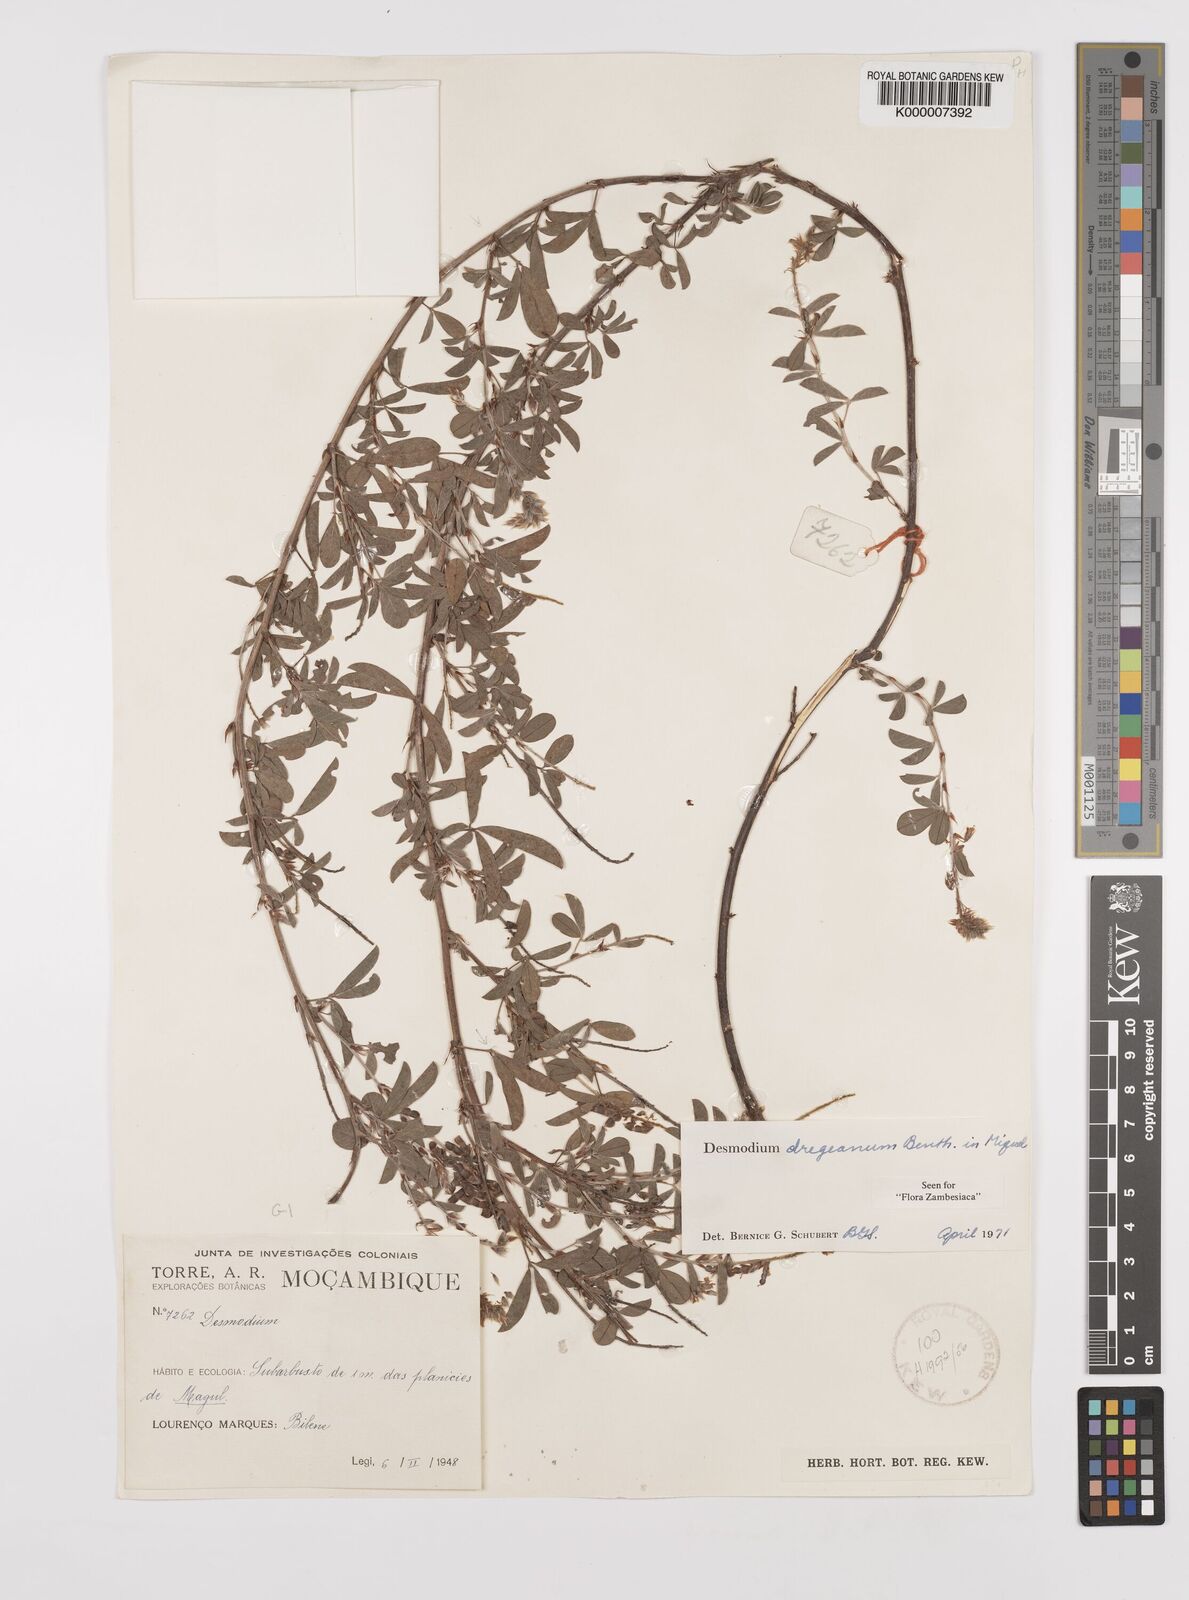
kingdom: Plantae
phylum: Tracheophyta
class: Magnoliopsida
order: Fabales
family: Fabaceae
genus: Grona
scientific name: Grona caffra
